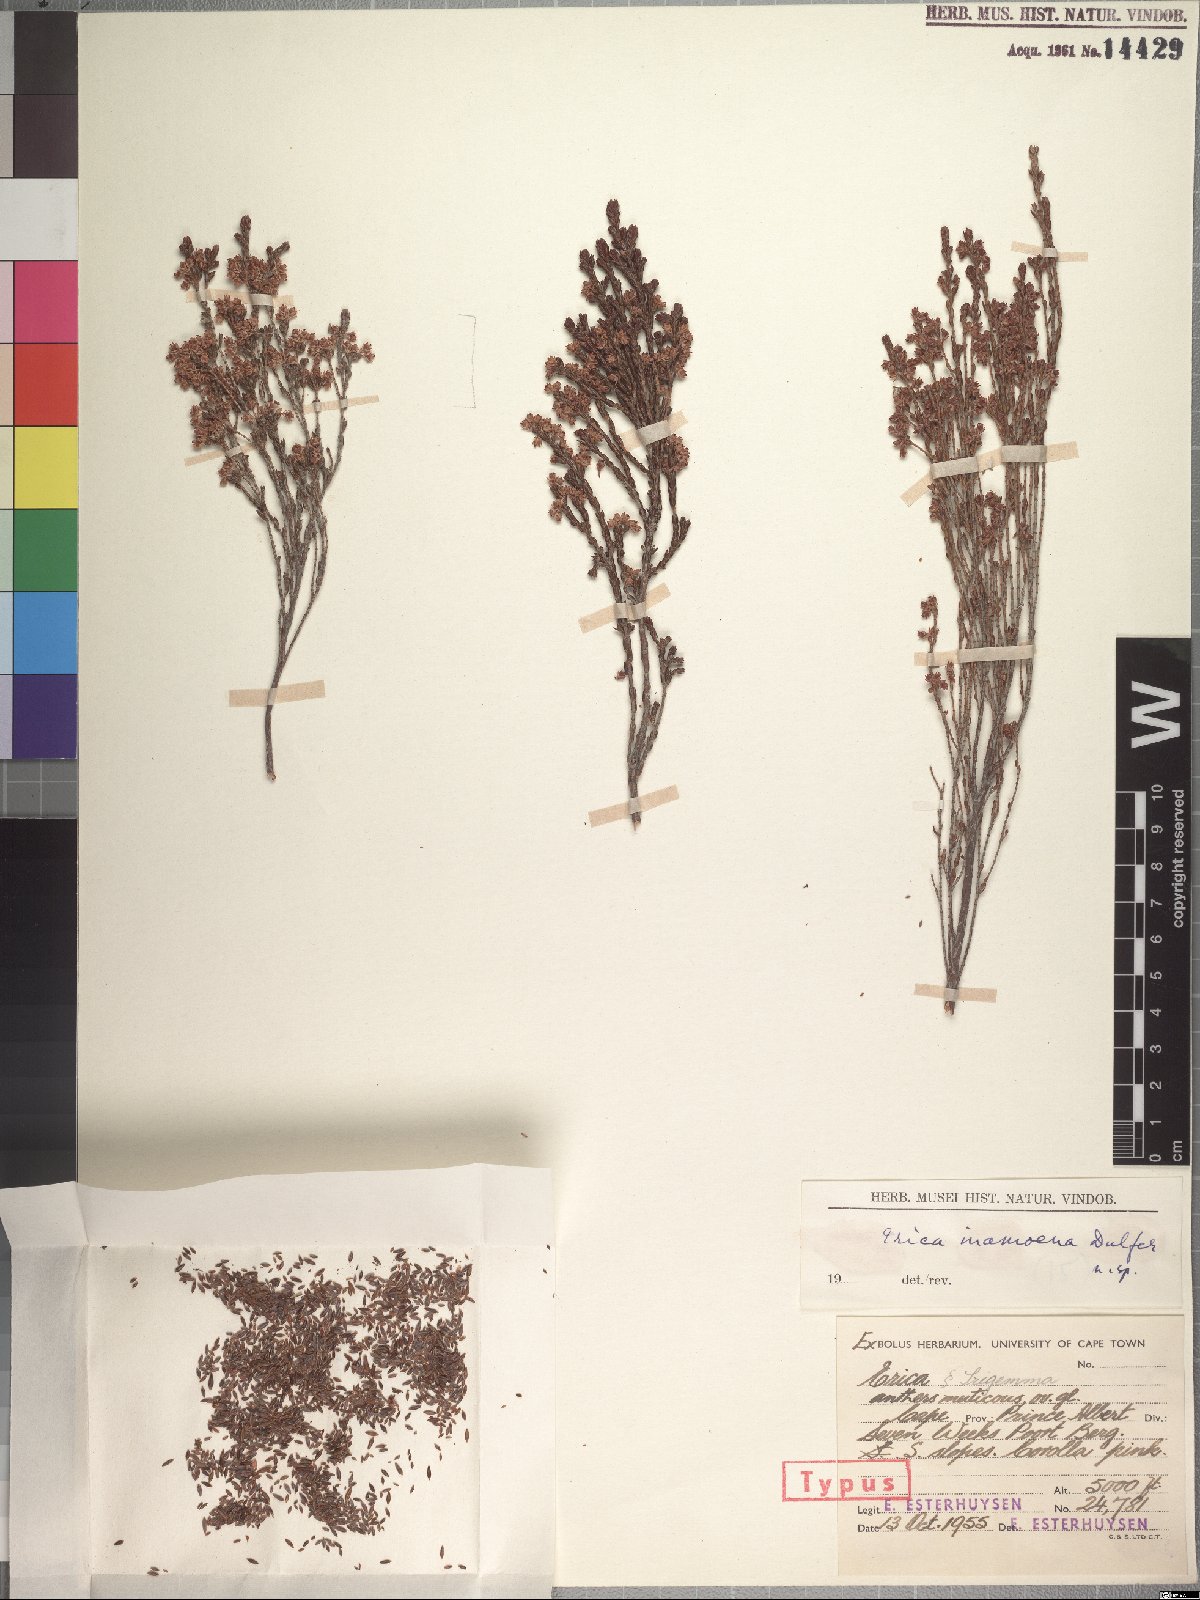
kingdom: Plantae
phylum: Tracheophyta
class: Magnoliopsida
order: Ericales
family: Ericaceae
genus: Erica
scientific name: Erica inamoena
